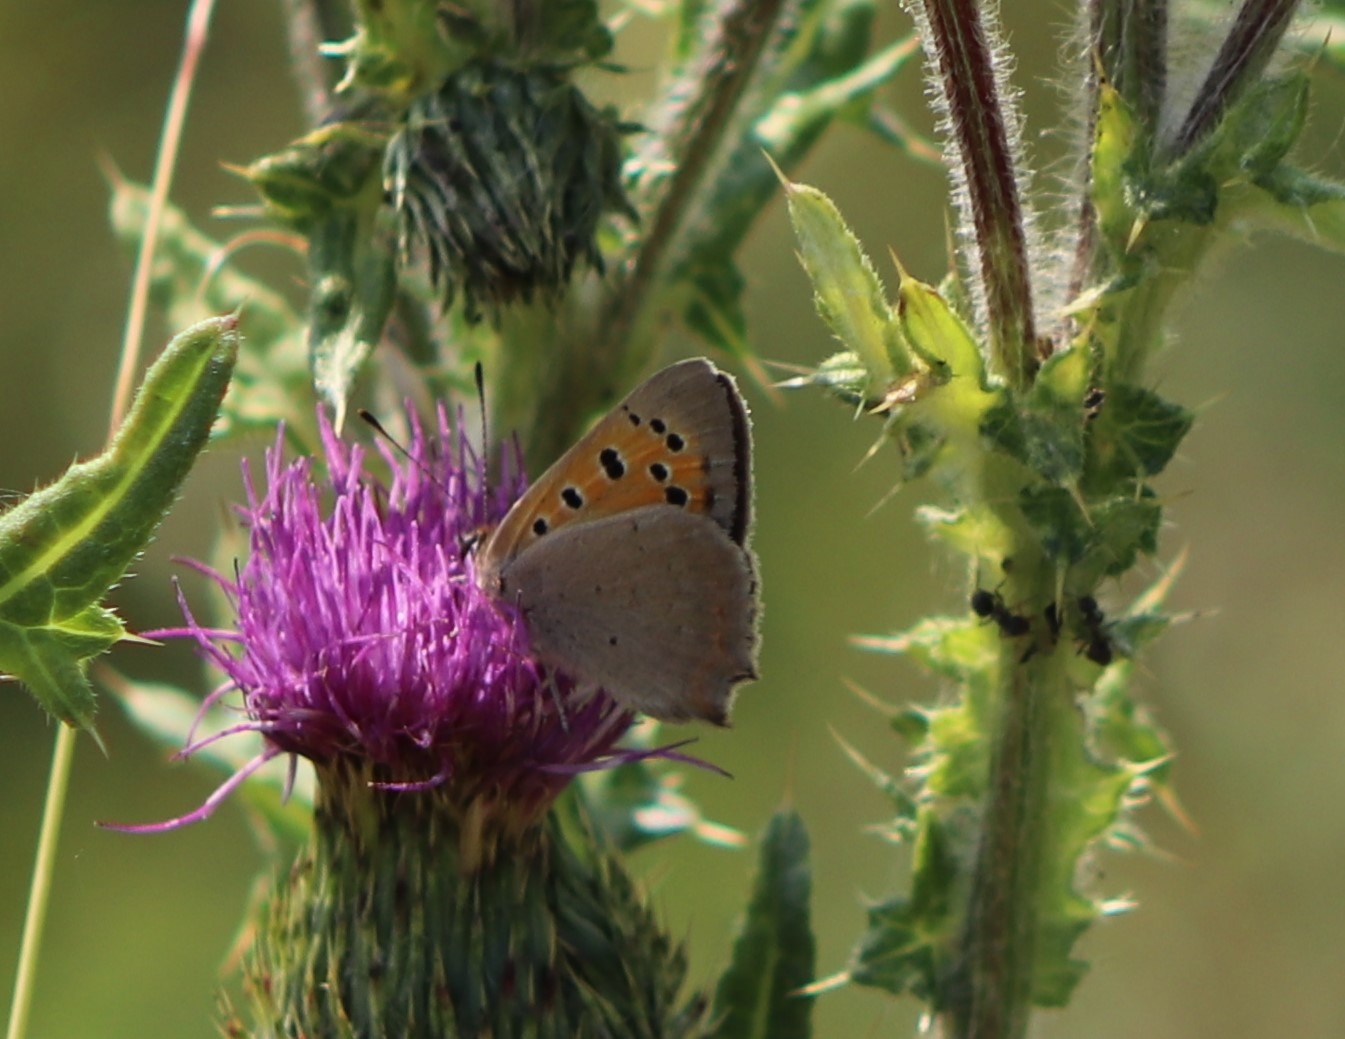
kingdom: Animalia
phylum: Arthropoda
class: Insecta
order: Lepidoptera
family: Lycaenidae
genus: Lycaena
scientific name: Lycaena phlaeas
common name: Lille ildfugl
